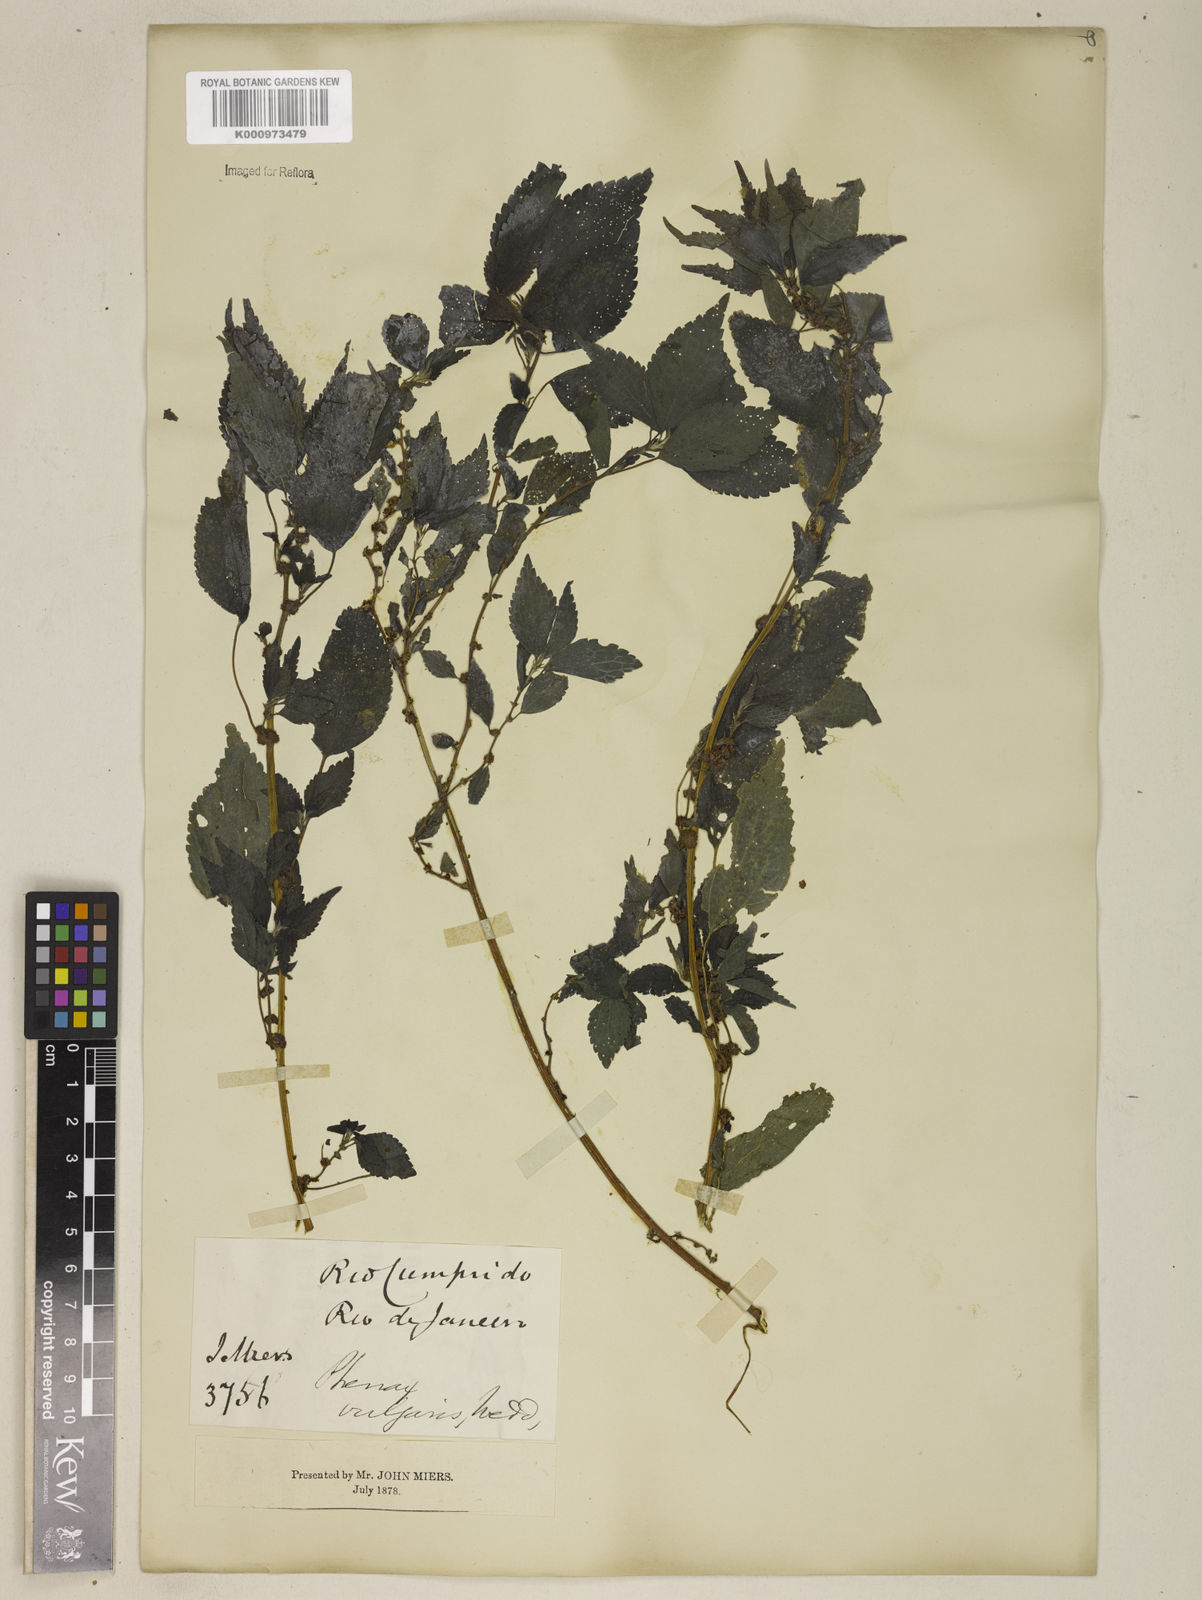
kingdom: Plantae
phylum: Tracheophyta
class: Magnoliopsida
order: Rosales
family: Urticaceae
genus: Phenax
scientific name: Phenax sonneratii
